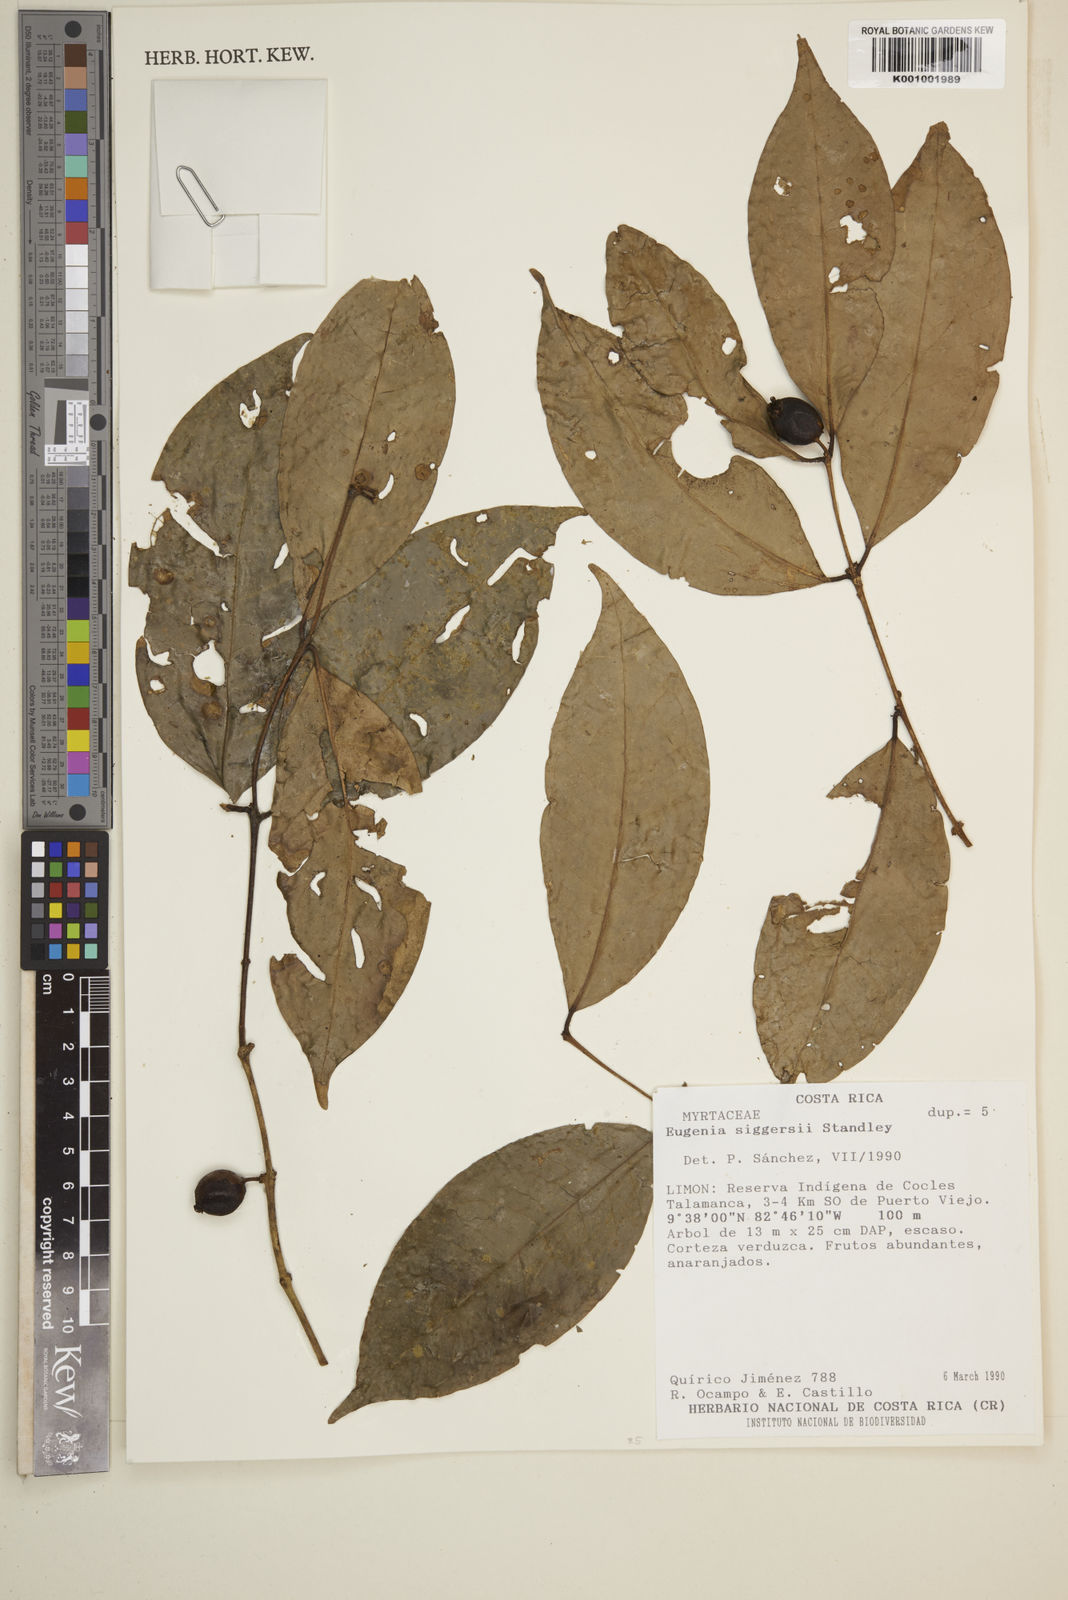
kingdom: Plantae
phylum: Tracheophyta
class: Magnoliopsida
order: Myrtales
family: Myrtaceae
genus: Eugenia
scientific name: Eugenia siggersii
